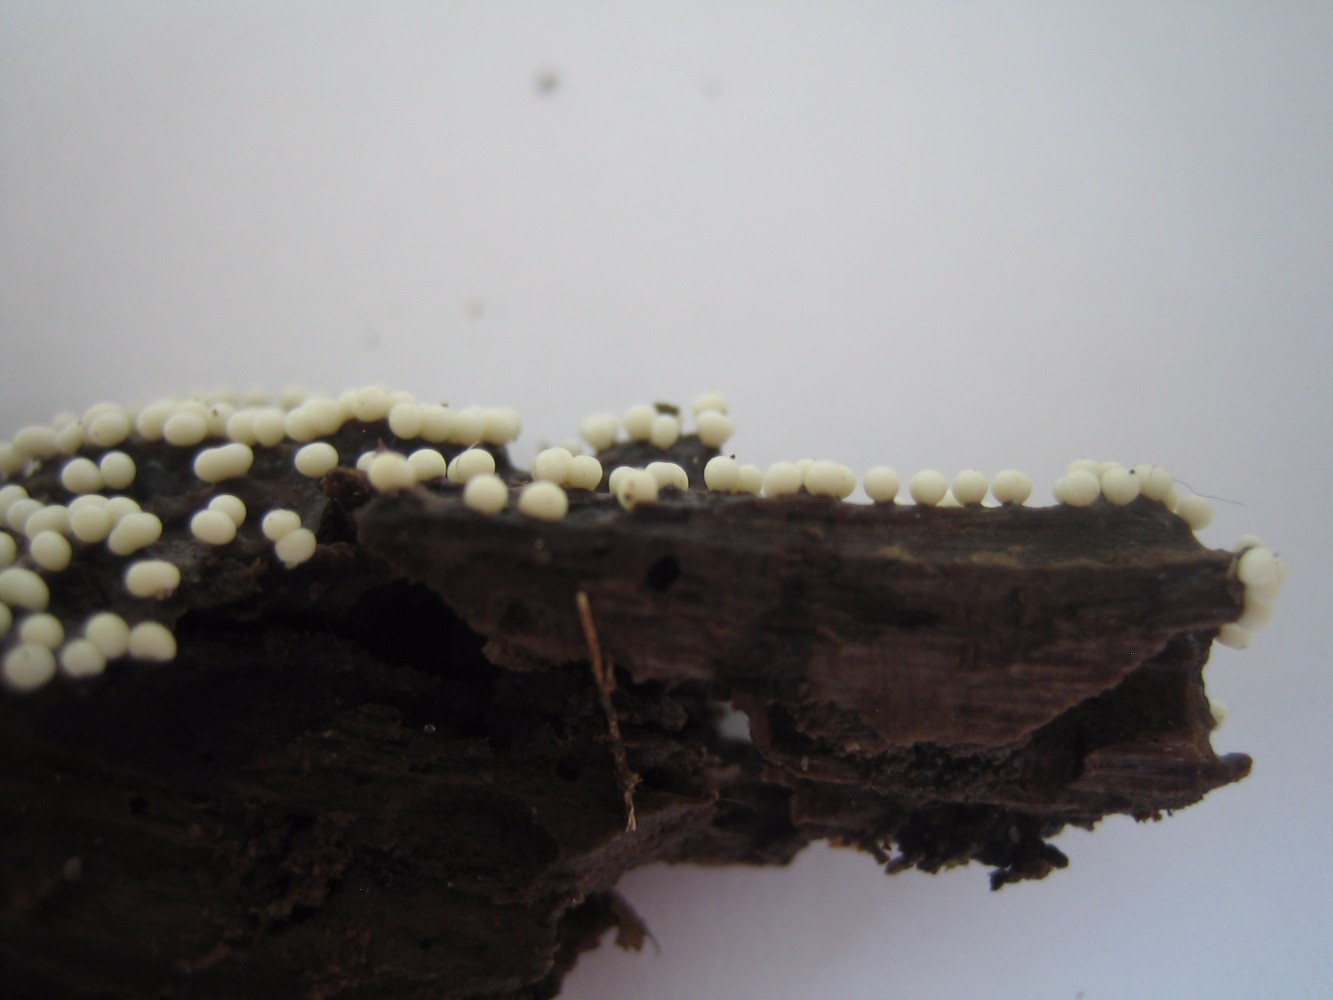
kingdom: Protozoa
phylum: Mycetozoa
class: Myxomycetes
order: Trichiales
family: Trichiaceae
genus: Trichia
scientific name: Trichia
